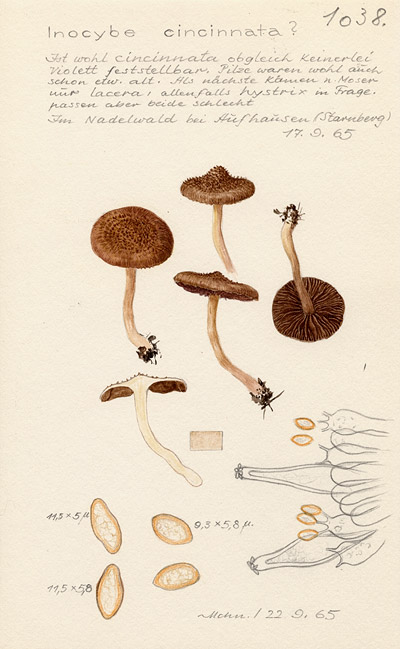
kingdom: Fungi
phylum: Basidiomycota
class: Agaricomycetes
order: Agaricales
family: Inocybaceae
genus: Inocybe
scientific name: Inocybe cincinnata
